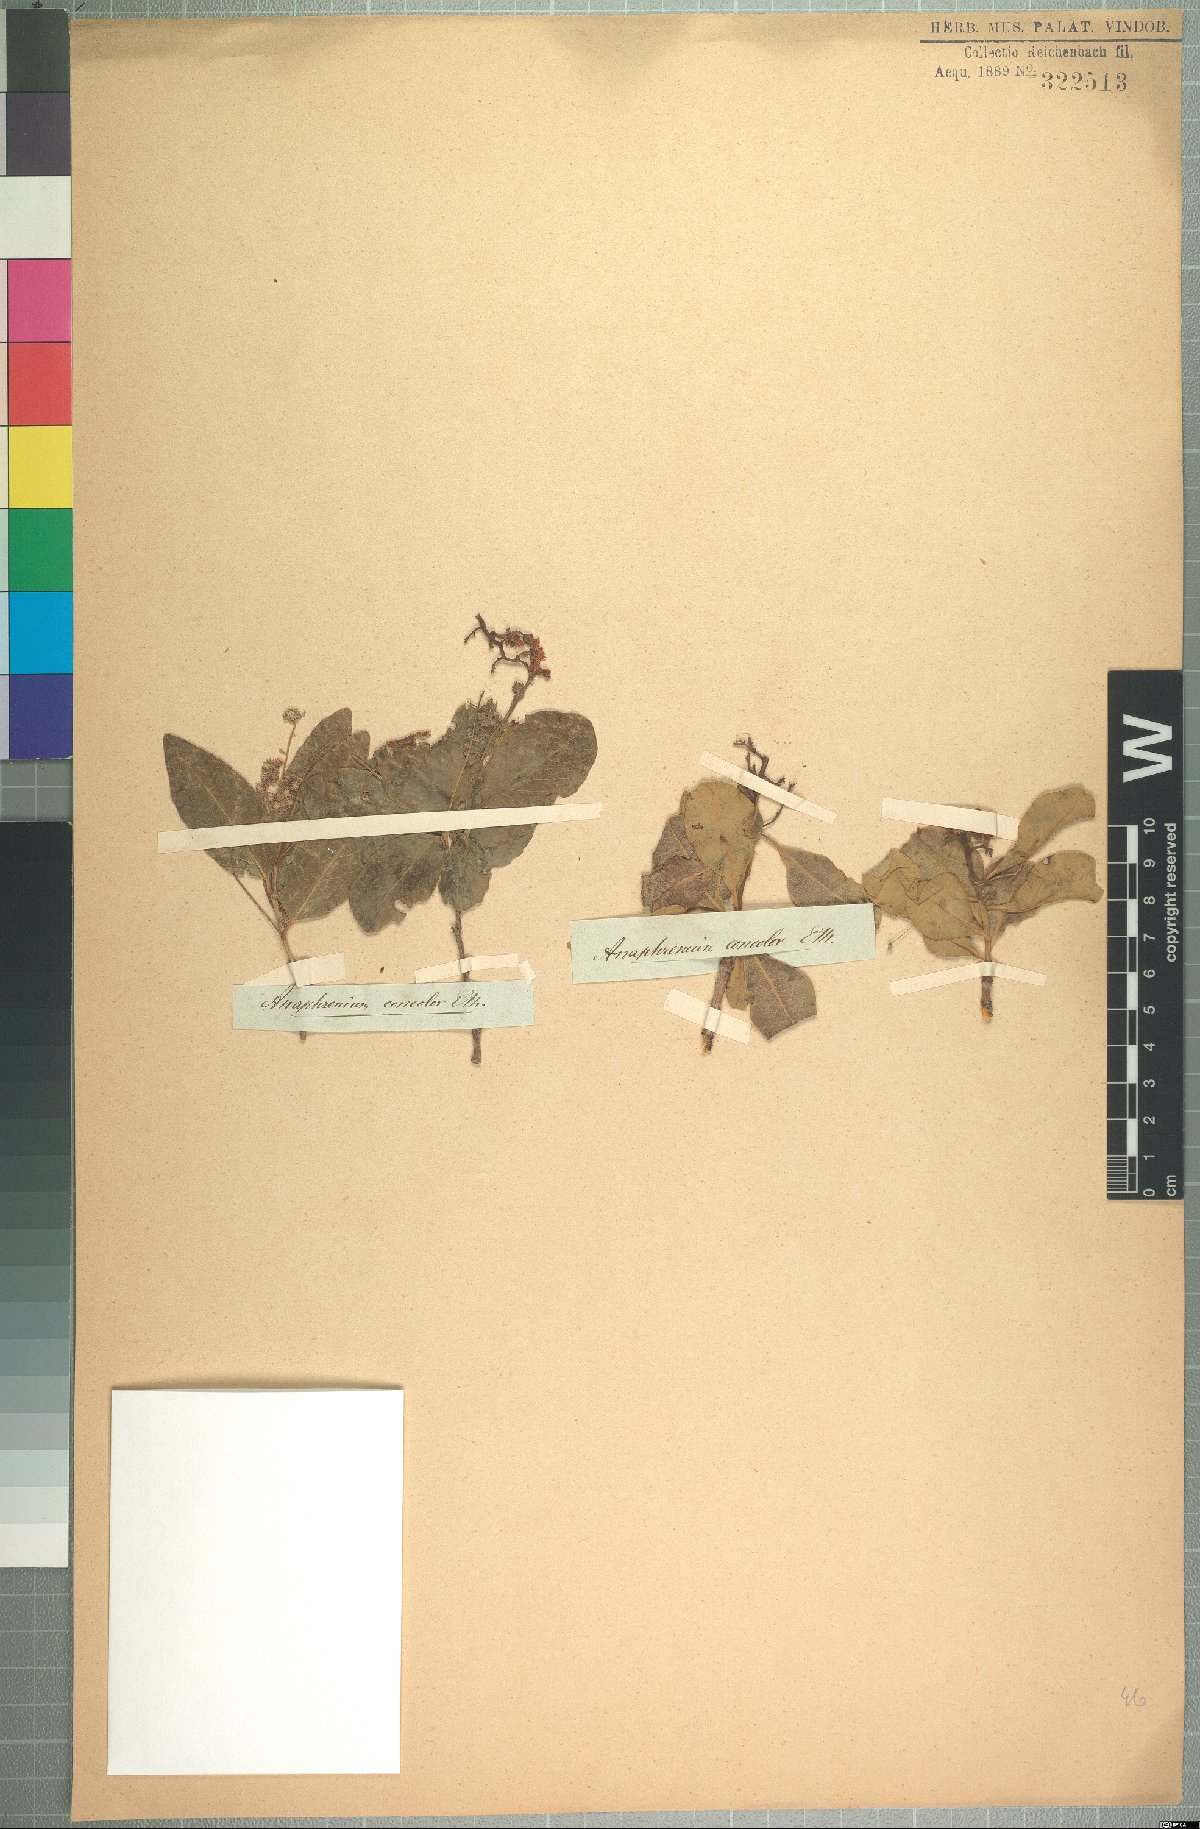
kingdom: Plantae
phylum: Tracheophyta
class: Magnoliopsida
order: Sapindales
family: Anacardiaceae
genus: Ozoroa
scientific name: Ozoroa concolor
